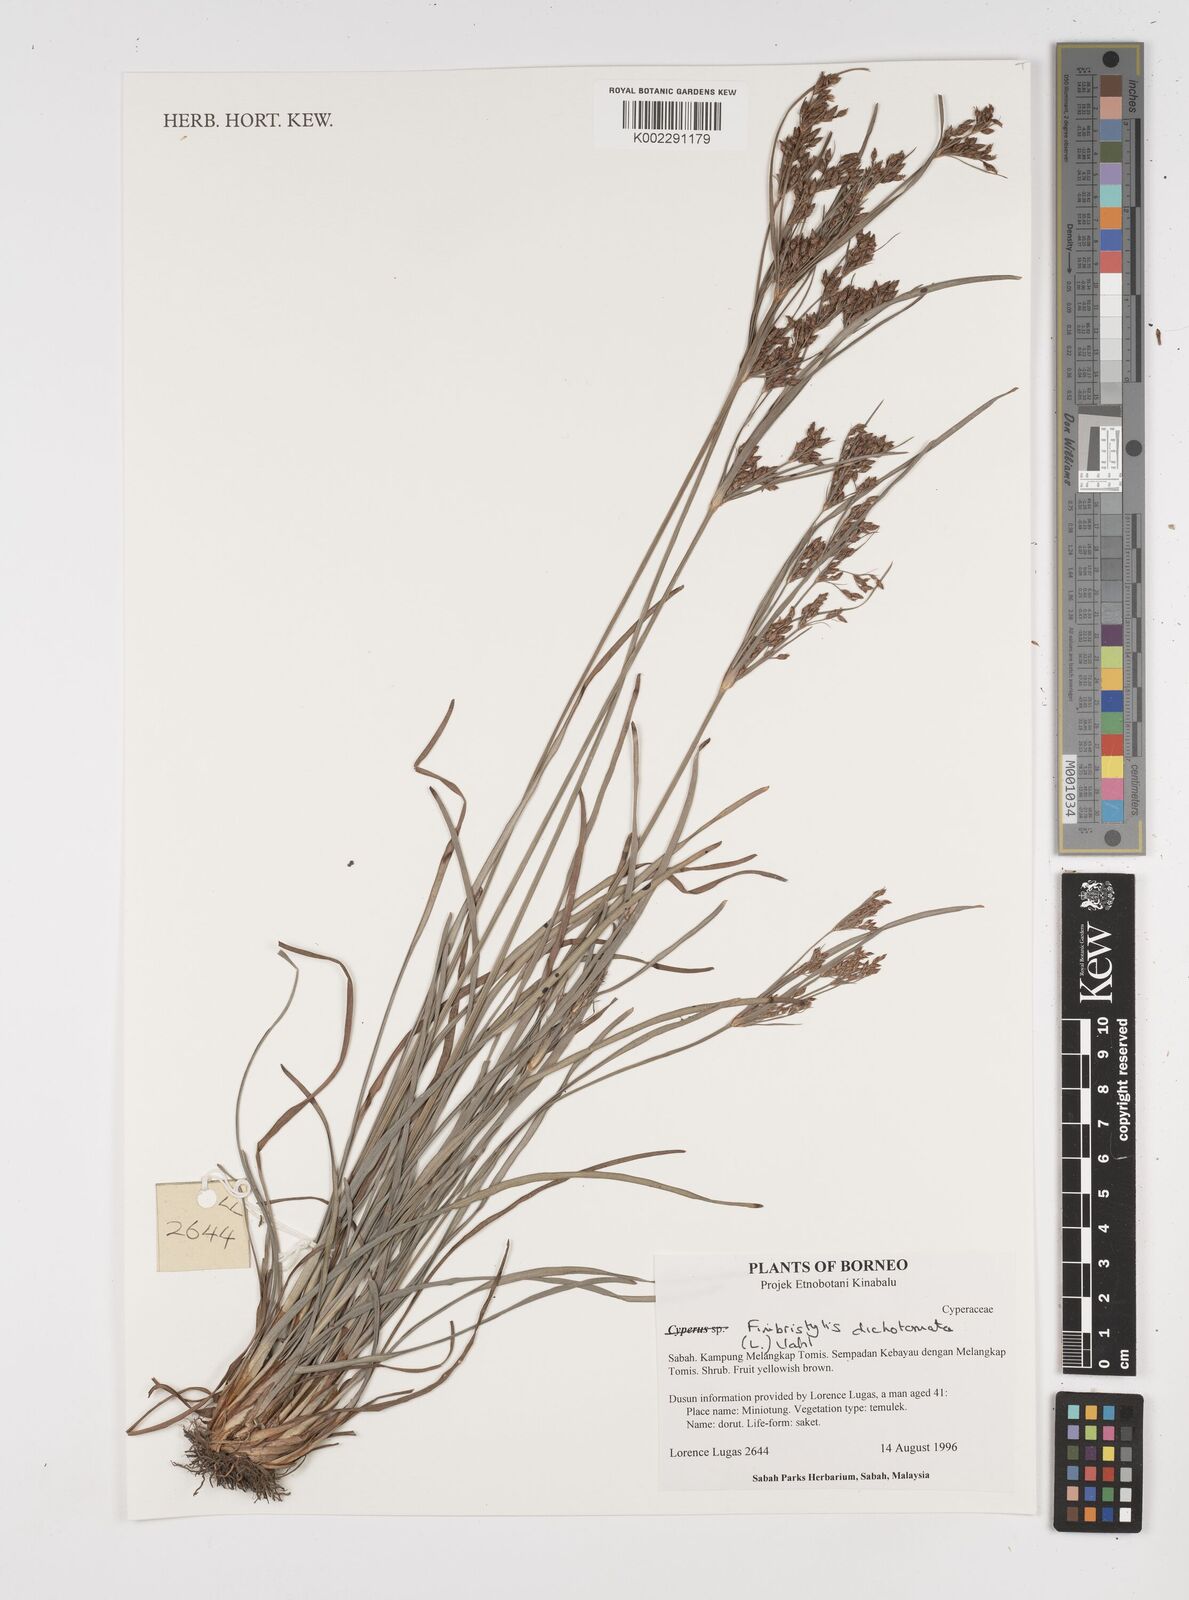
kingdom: Plantae
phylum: Tracheophyta
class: Liliopsida
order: Poales
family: Cyperaceae
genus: Fimbristylis
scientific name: Fimbristylis dichotoma
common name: Forked fimbry
